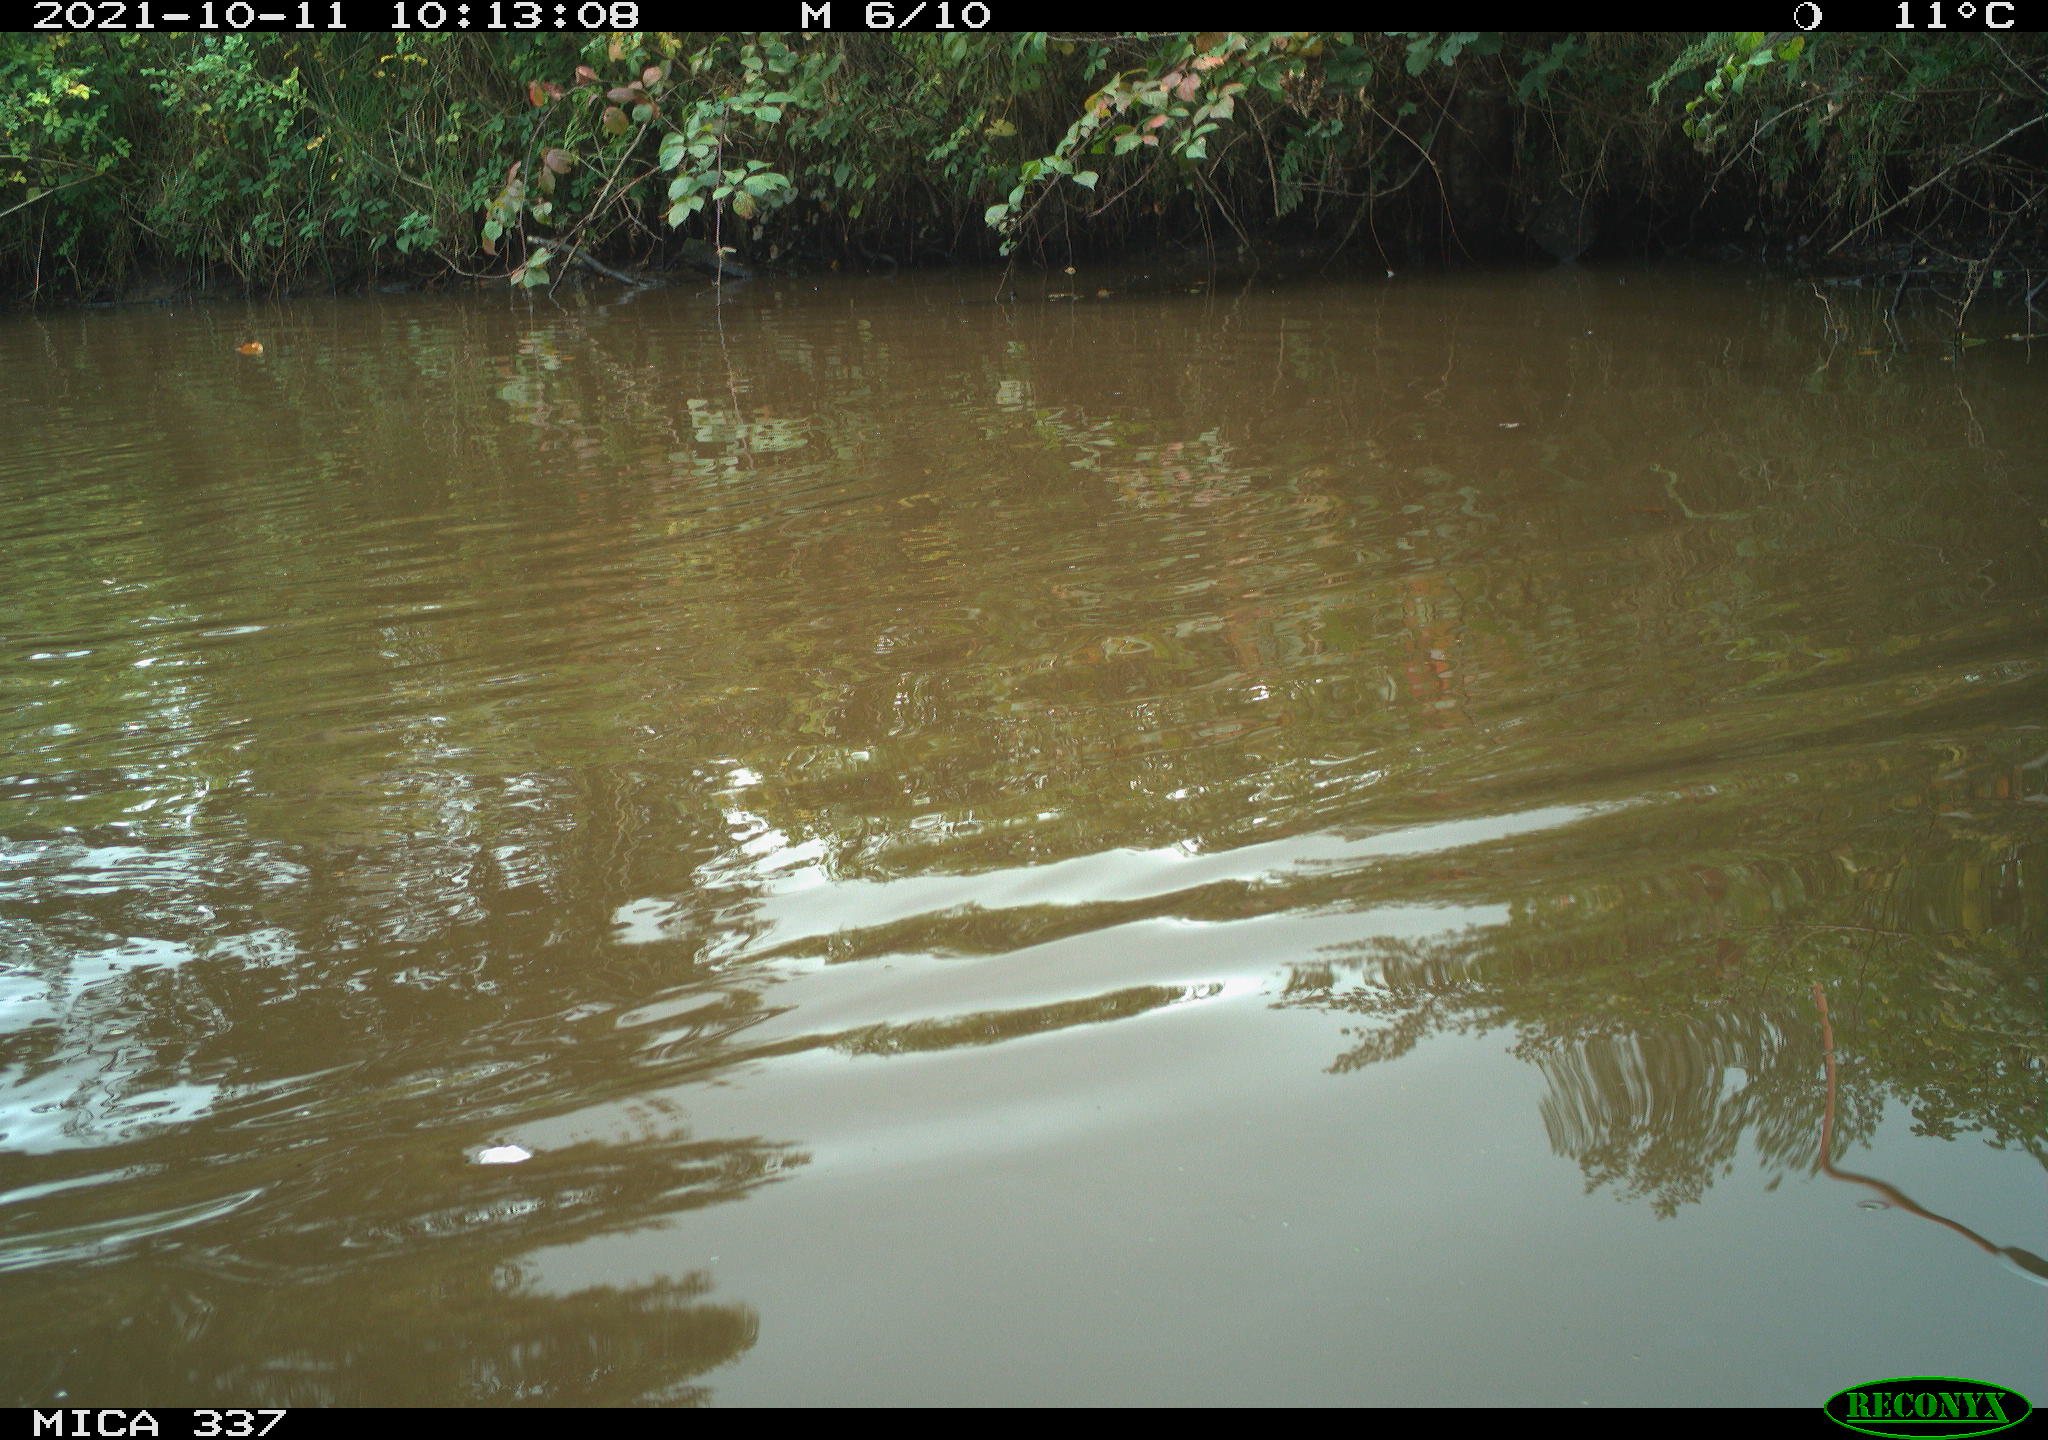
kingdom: Animalia
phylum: Chordata
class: Aves
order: Anseriformes
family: Anatidae
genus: Anas
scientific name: Anas platyrhynchos
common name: Mallard
